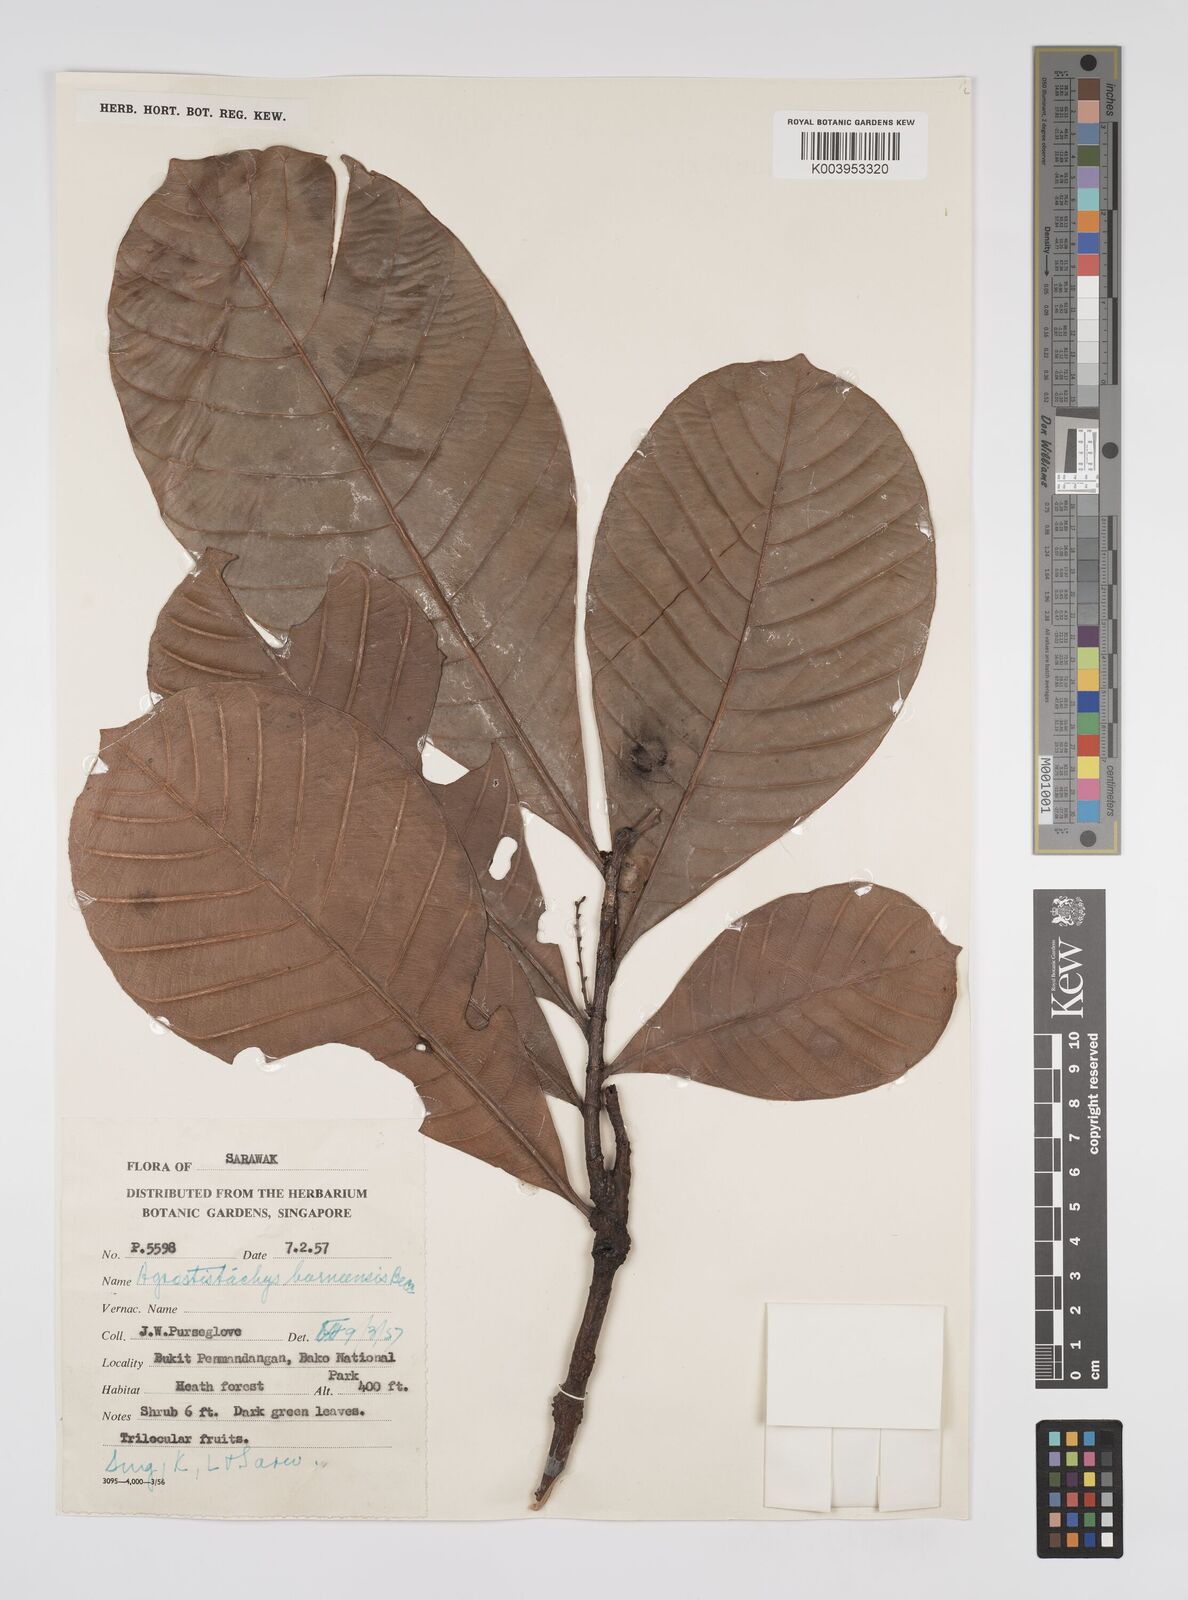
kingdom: Plantae
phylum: Tracheophyta
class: Magnoliopsida
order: Malpighiales
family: Euphorbiaceae
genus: Agrostistachys
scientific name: Agrostistachys
